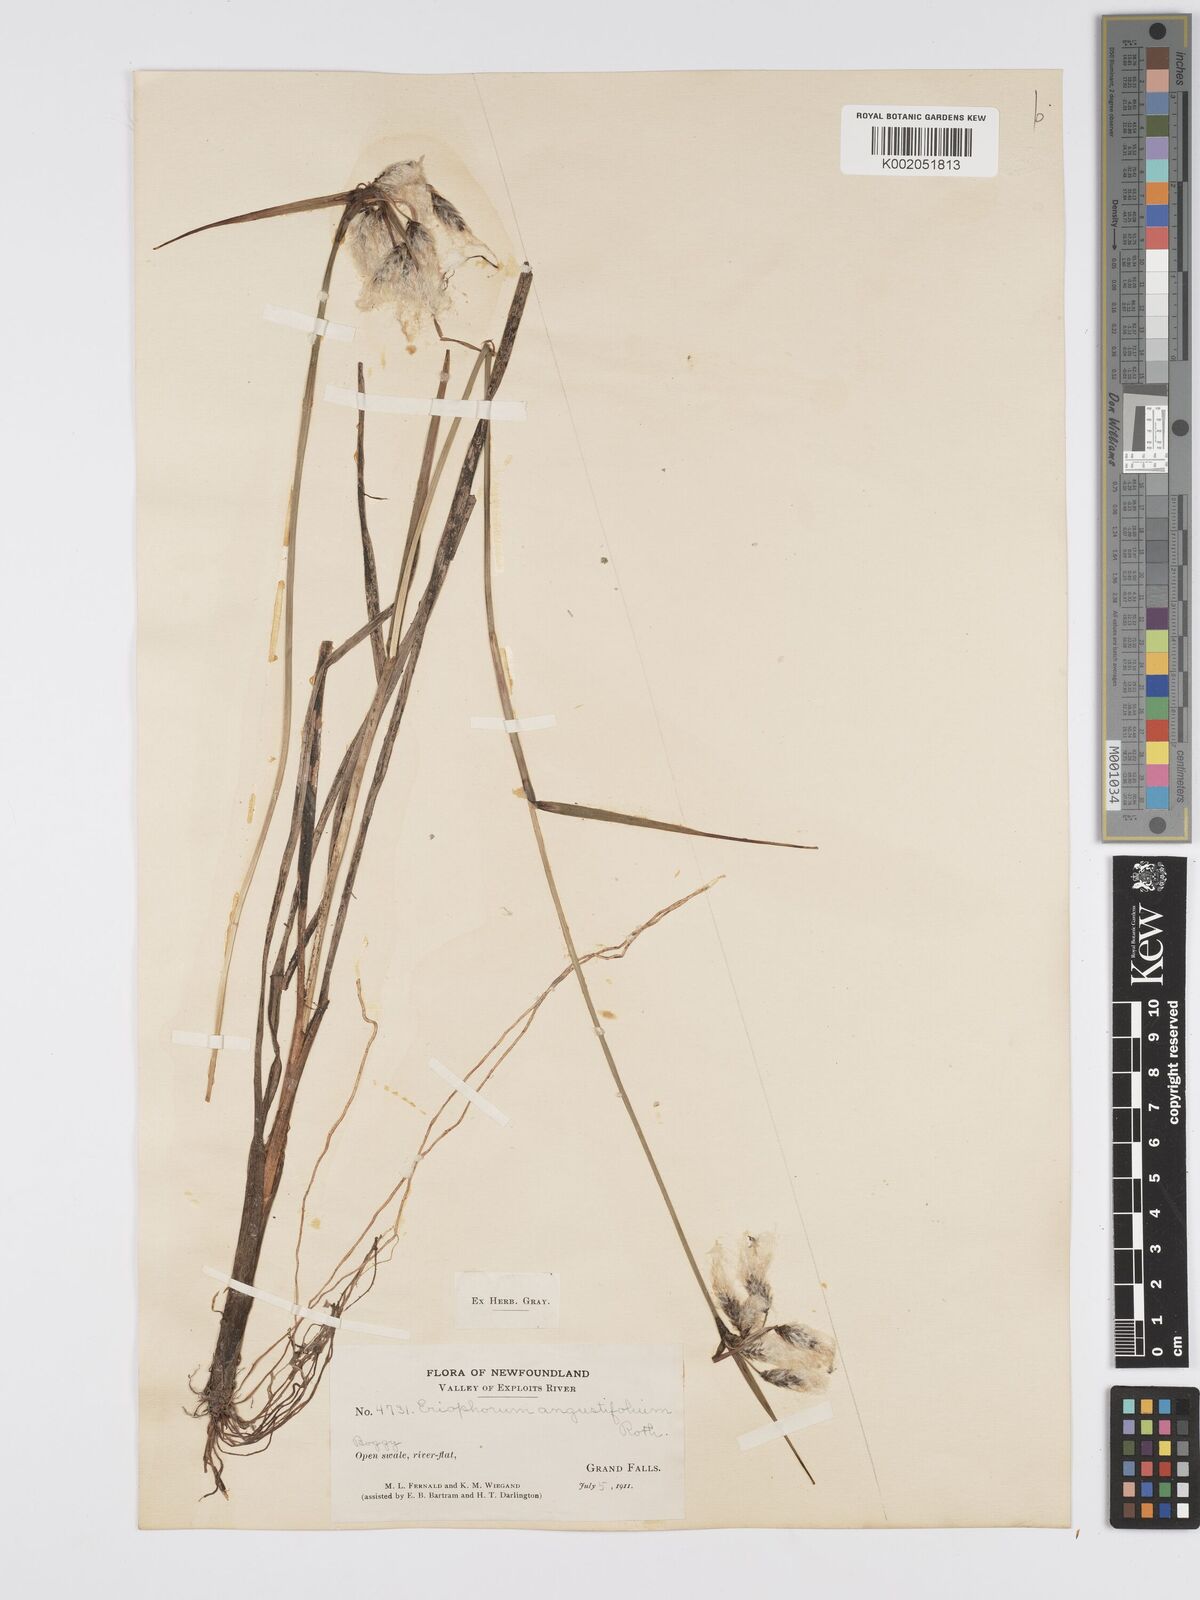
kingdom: Plantae
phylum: Tracheophyta
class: Liliopsida
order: Poales
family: Cyperaceae
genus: Eriophorum
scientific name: Eriophorum angustifolium
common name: Common cottongrass
